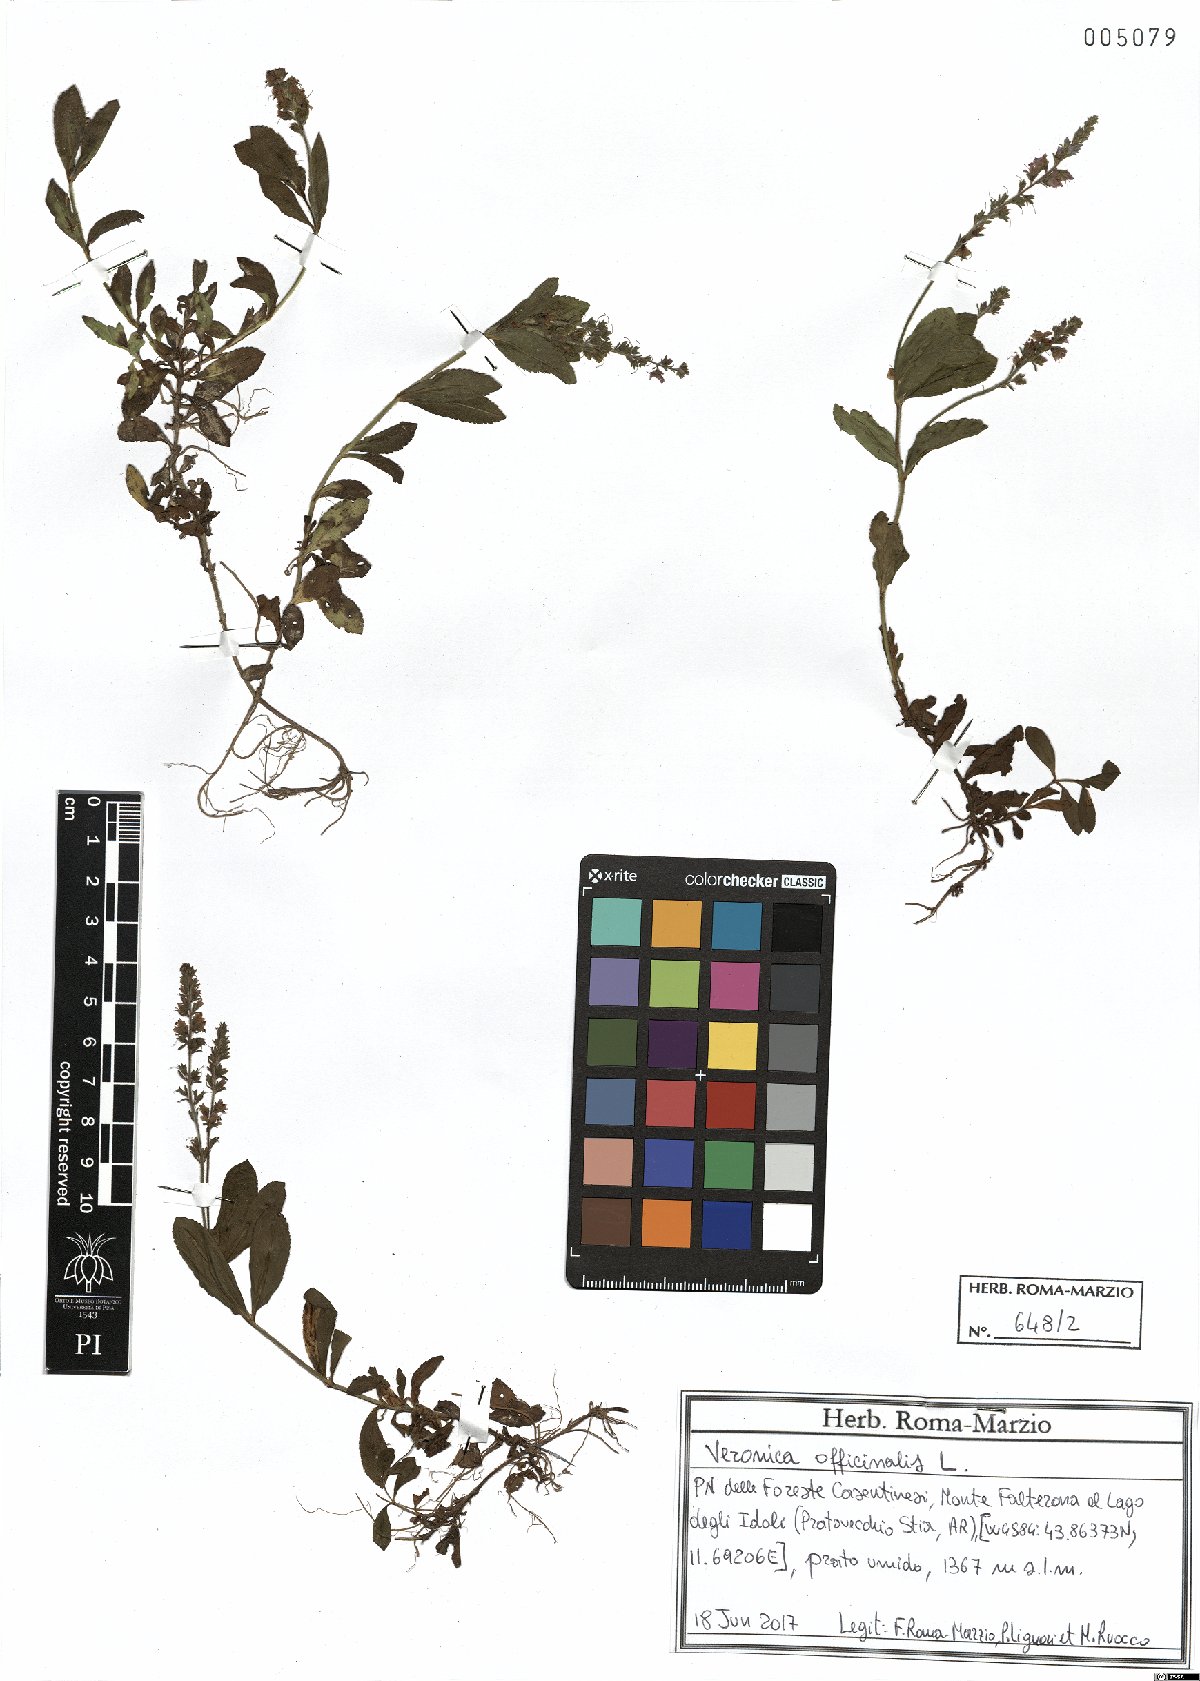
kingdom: Plantae
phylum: Tracheophyta
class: Magnoliopsida
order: Lamiales
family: Plantaginaceae
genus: Veronica
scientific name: Veronica officinalis
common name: Common speedwell
